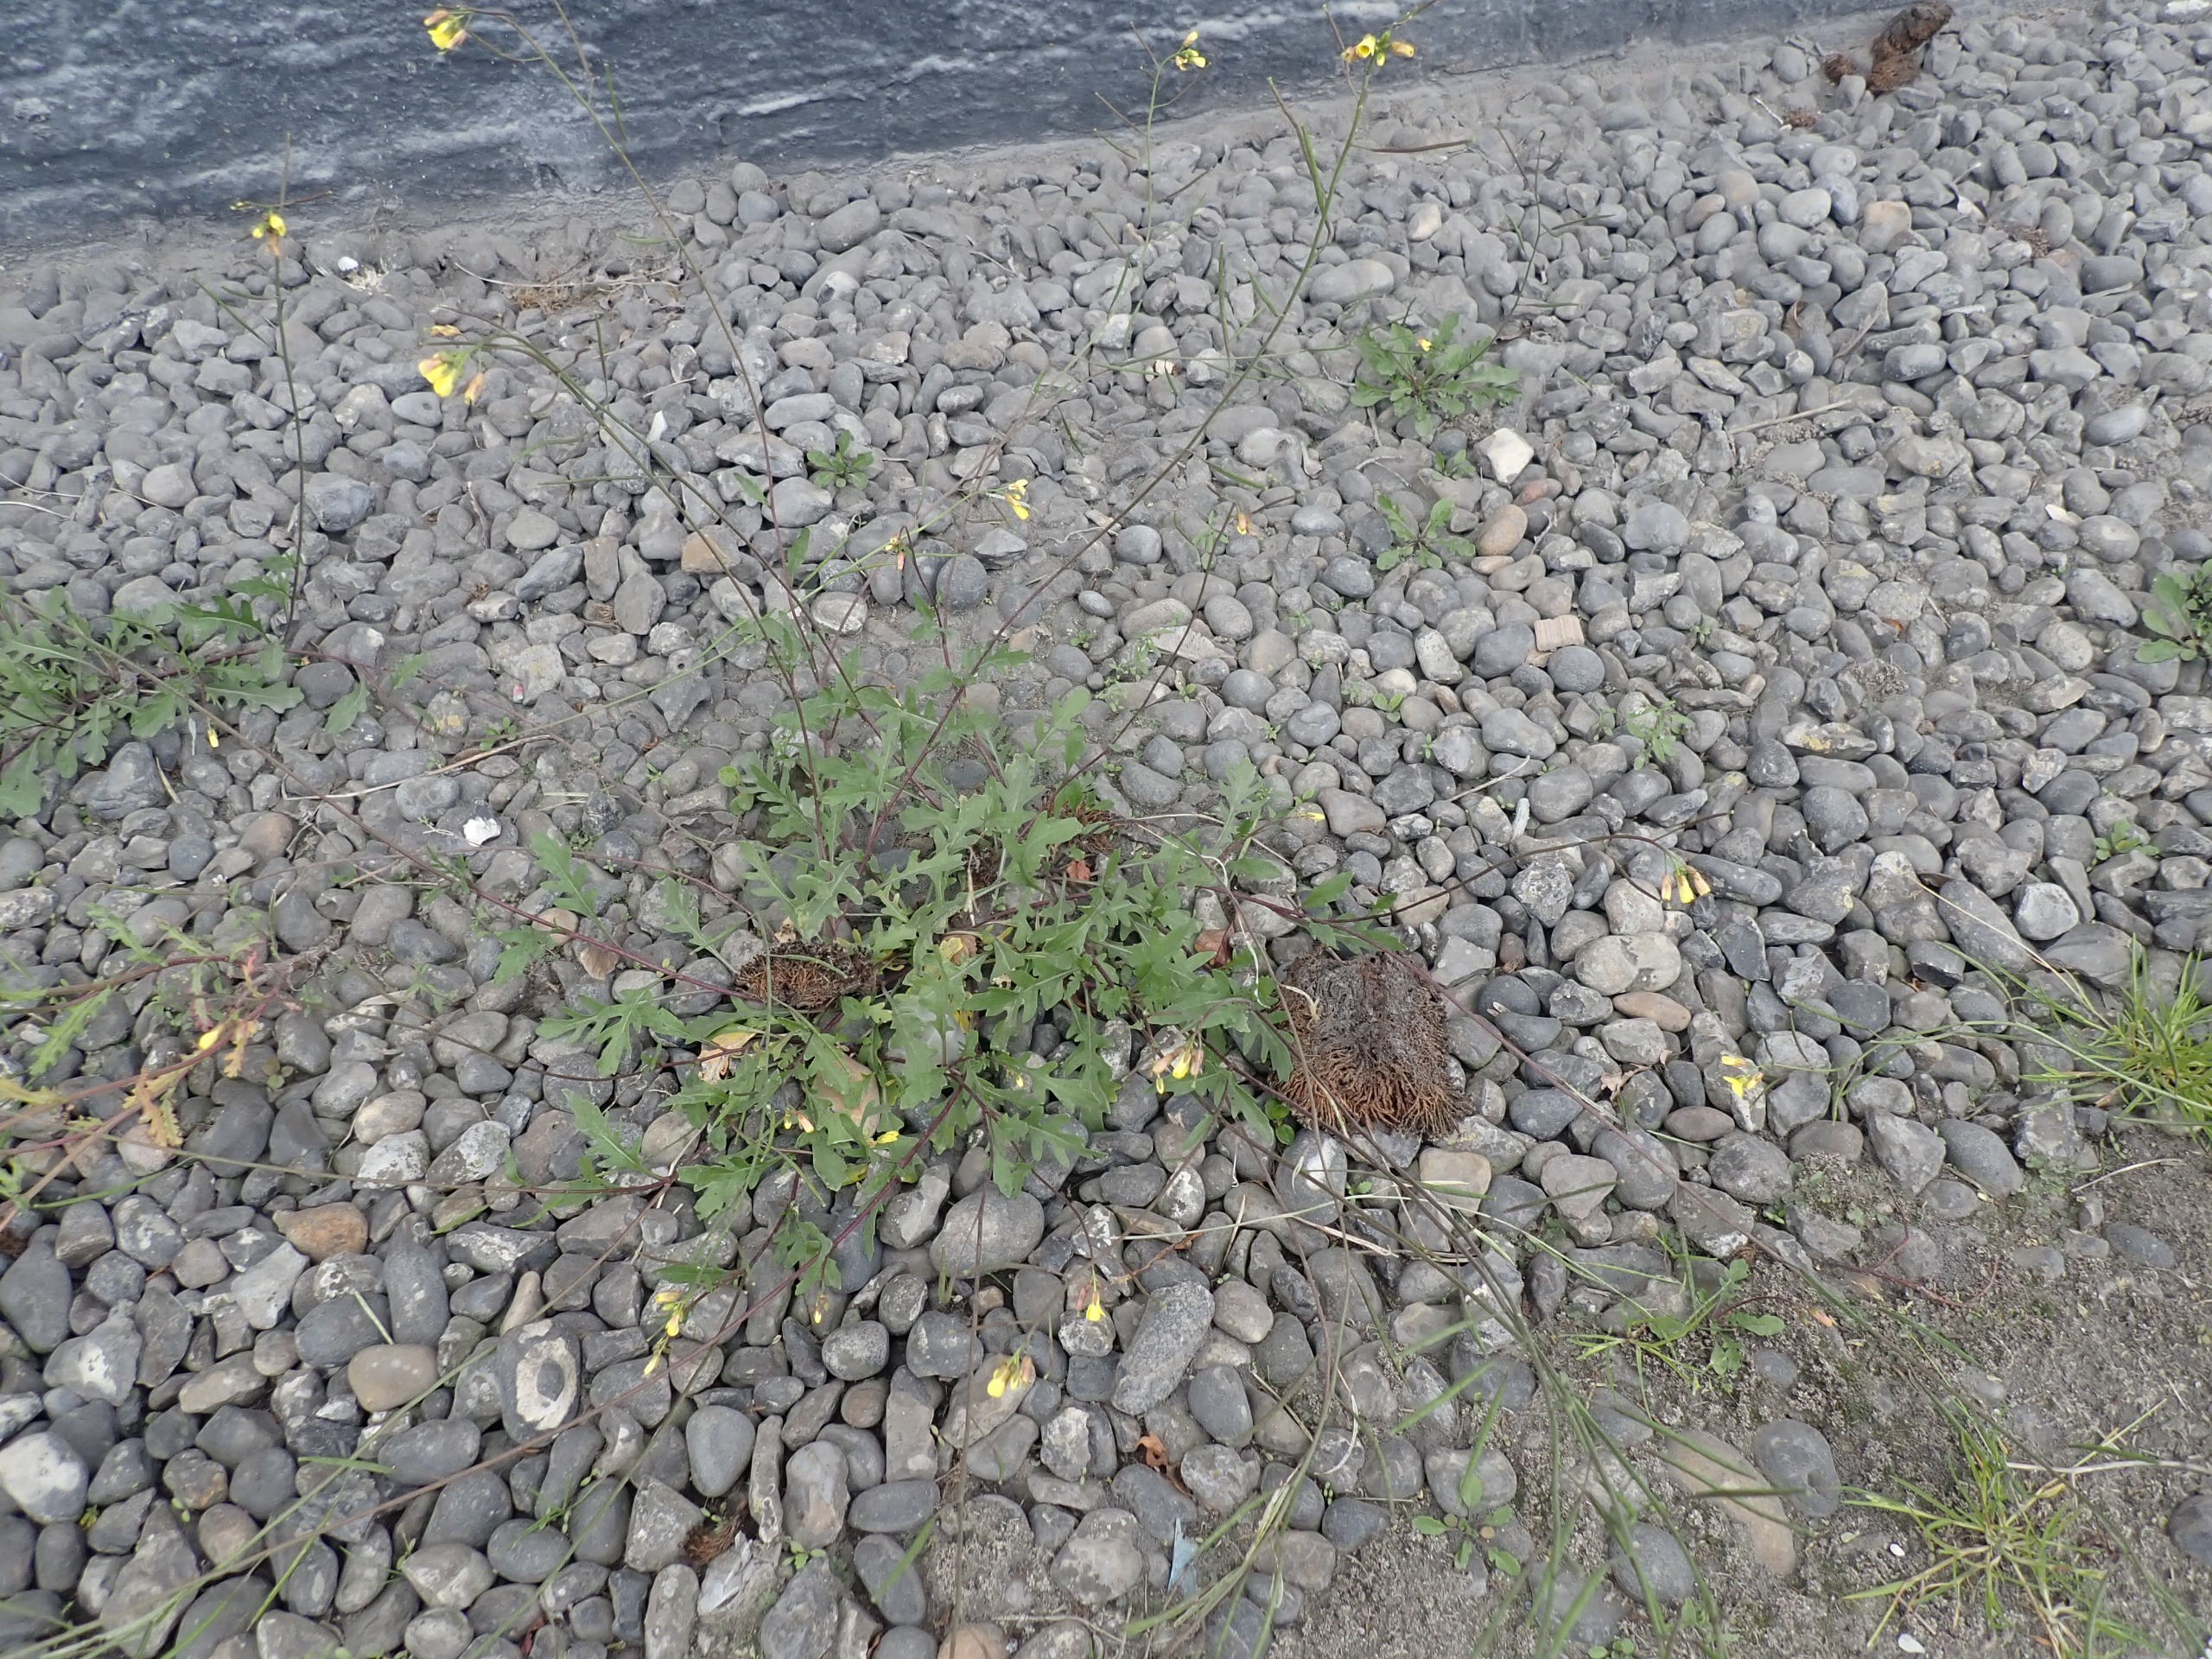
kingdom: Plantae
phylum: Tracheophyta
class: Magnoliopsida
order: Brassicales
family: Brassicaceae
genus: Diplotaxis
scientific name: Diplotaxis muralis
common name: Mursennep
